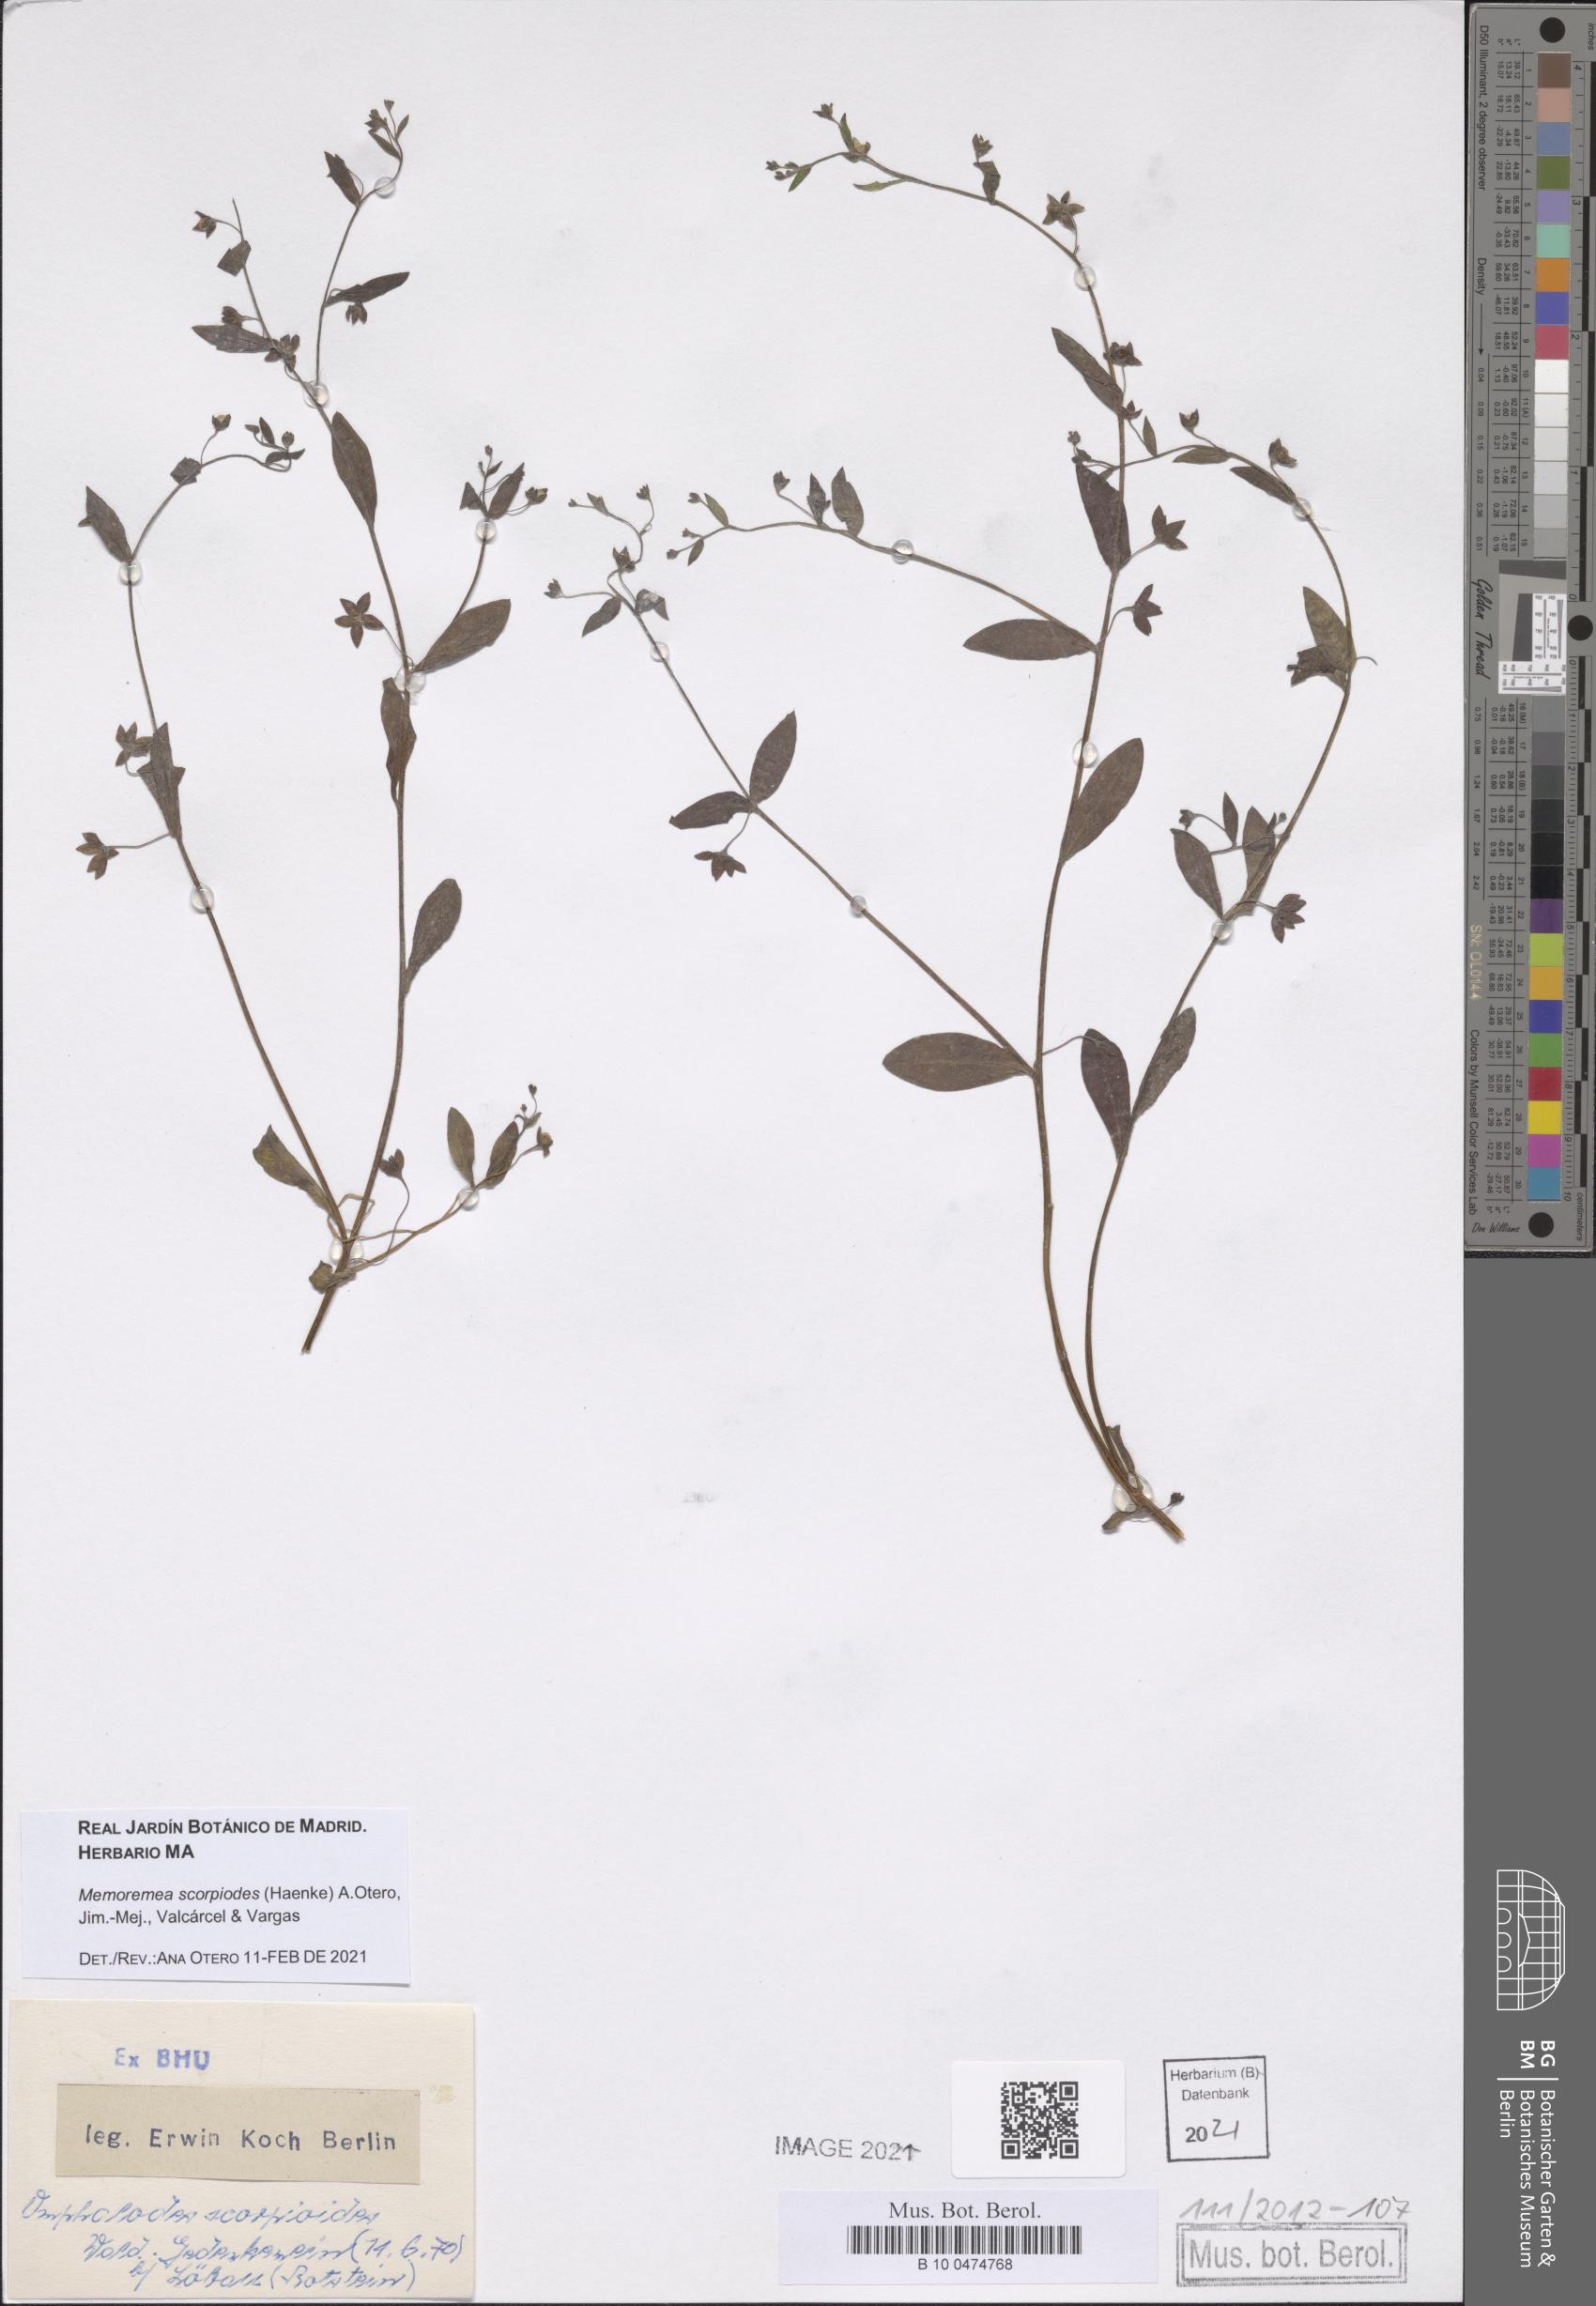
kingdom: Plantae
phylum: Tracheophyta
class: Magnoliopsida
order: Boraginales
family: Boraginaceae
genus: Memoremea
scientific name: Memoremea scorpioides
